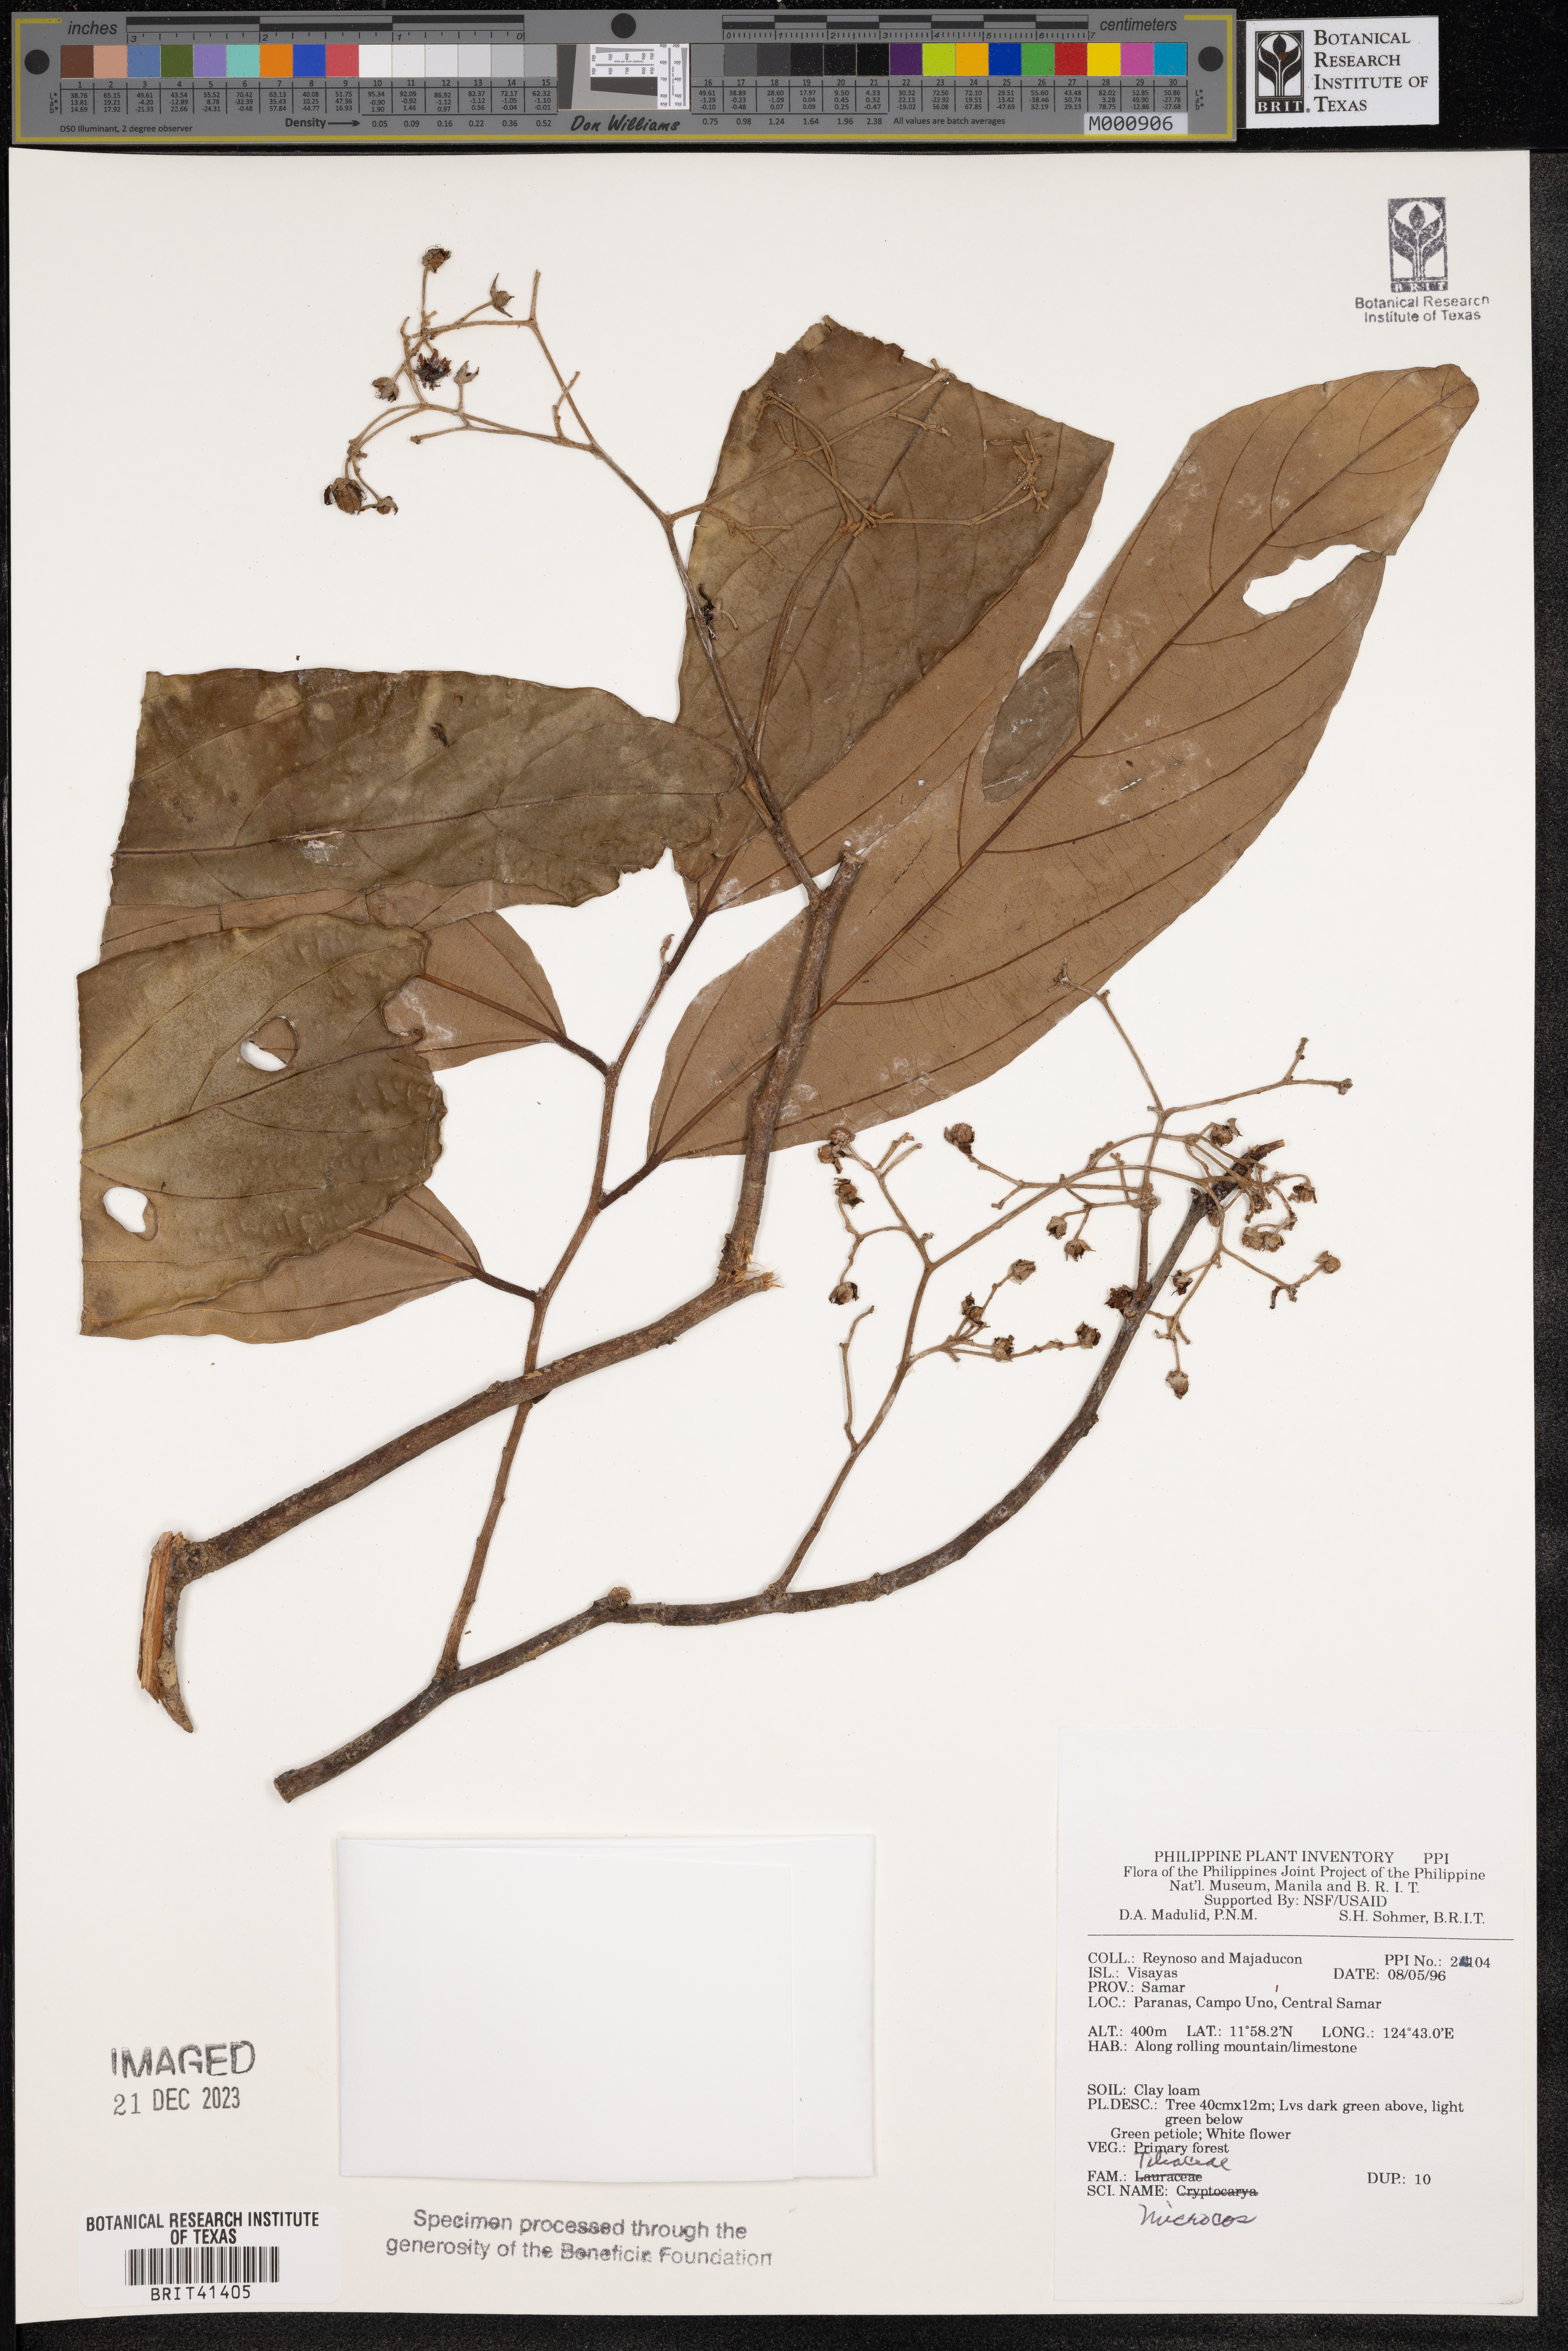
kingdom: Plantae
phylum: Tracheophyta
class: Magnoliopsida
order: Malvales
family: Malvaceae
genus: Microcos
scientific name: Microcos
